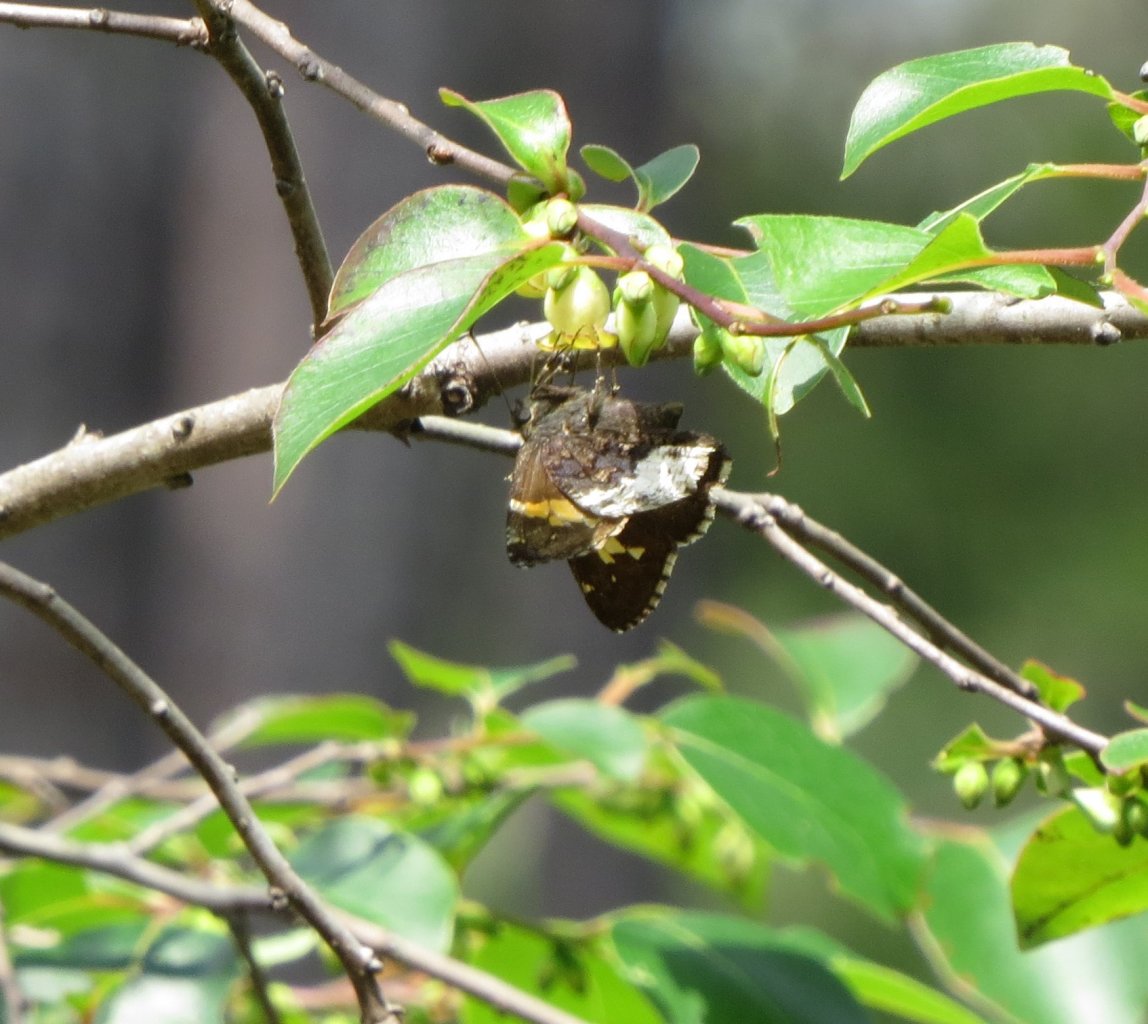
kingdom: Animalia
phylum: Arthropoda
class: Insecta
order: Lepidoptera
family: Hesperiidae
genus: Achalarus
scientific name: Achalarus lyciades
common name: Hoary Edge
